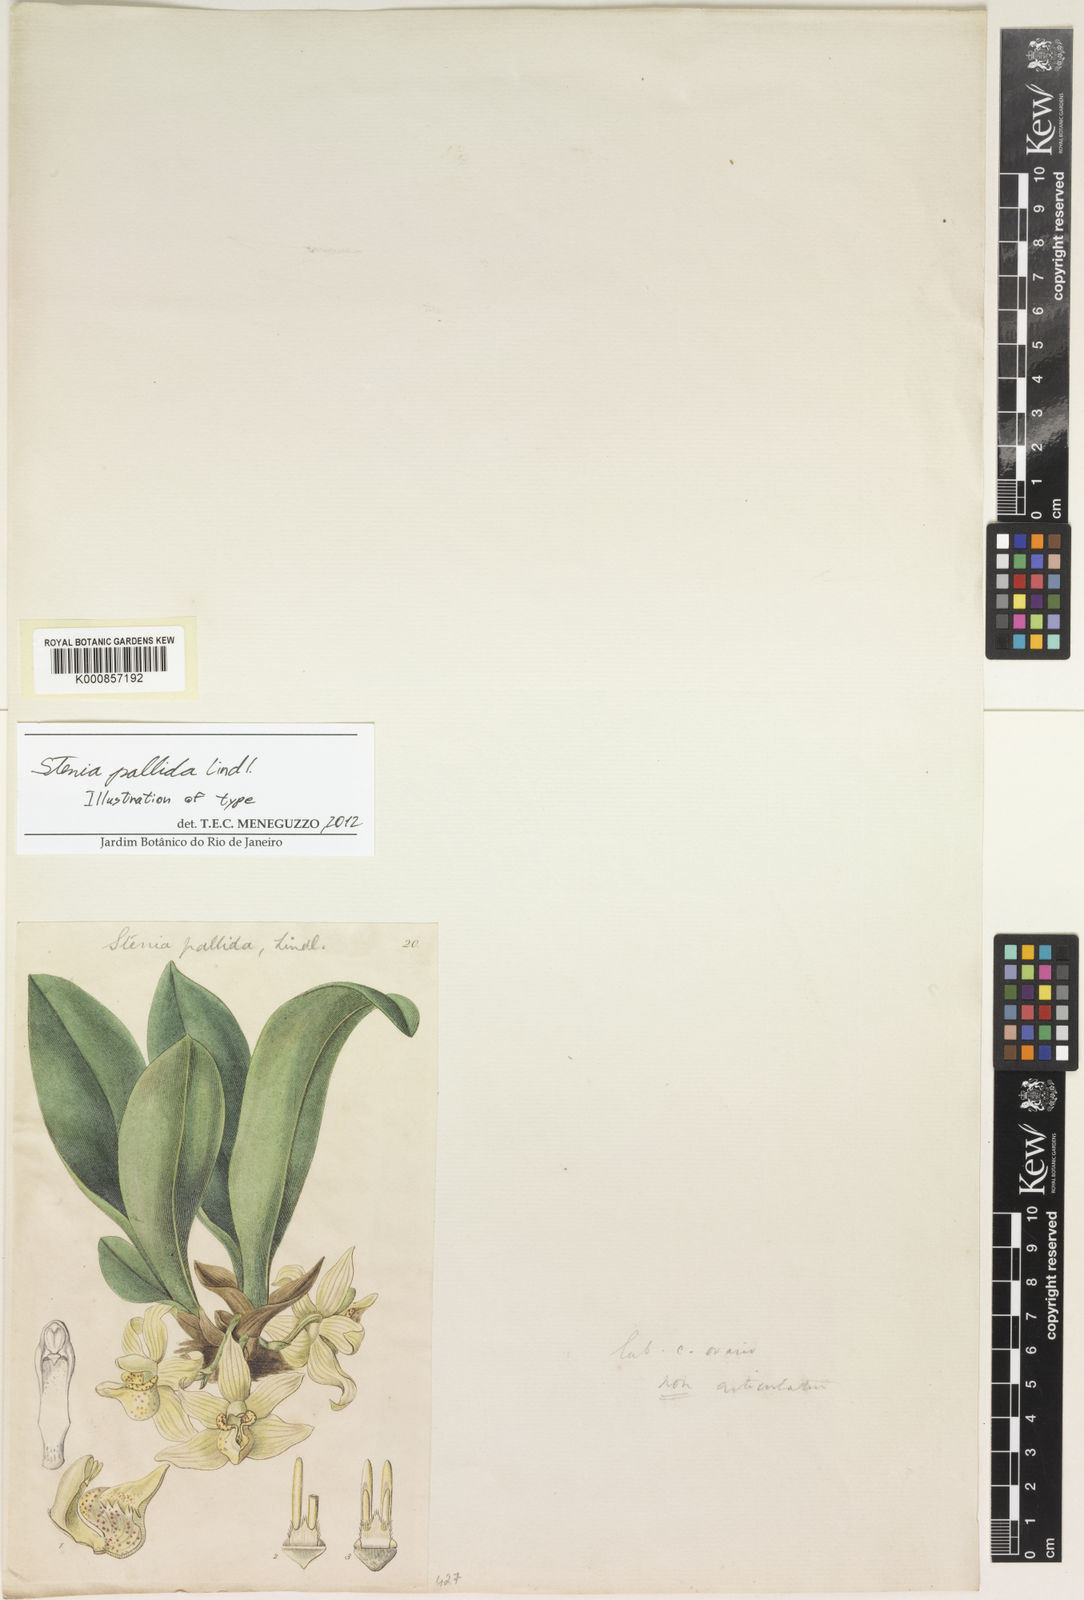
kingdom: Plantae
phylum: Tracheophyta
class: Liliopsida
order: Asparagales
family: Orchidaceae
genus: Stenia
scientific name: Stenia pallida
